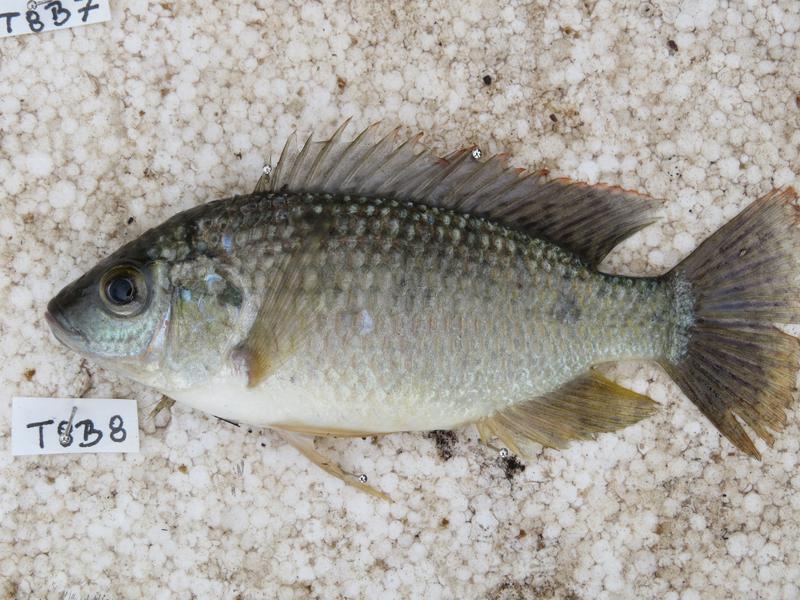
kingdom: Animalia
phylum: Chordata
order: Perciformes
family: Cichlidae
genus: Oreochromis
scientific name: Oreochromis leucostictus
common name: Blue spotted tilapia
